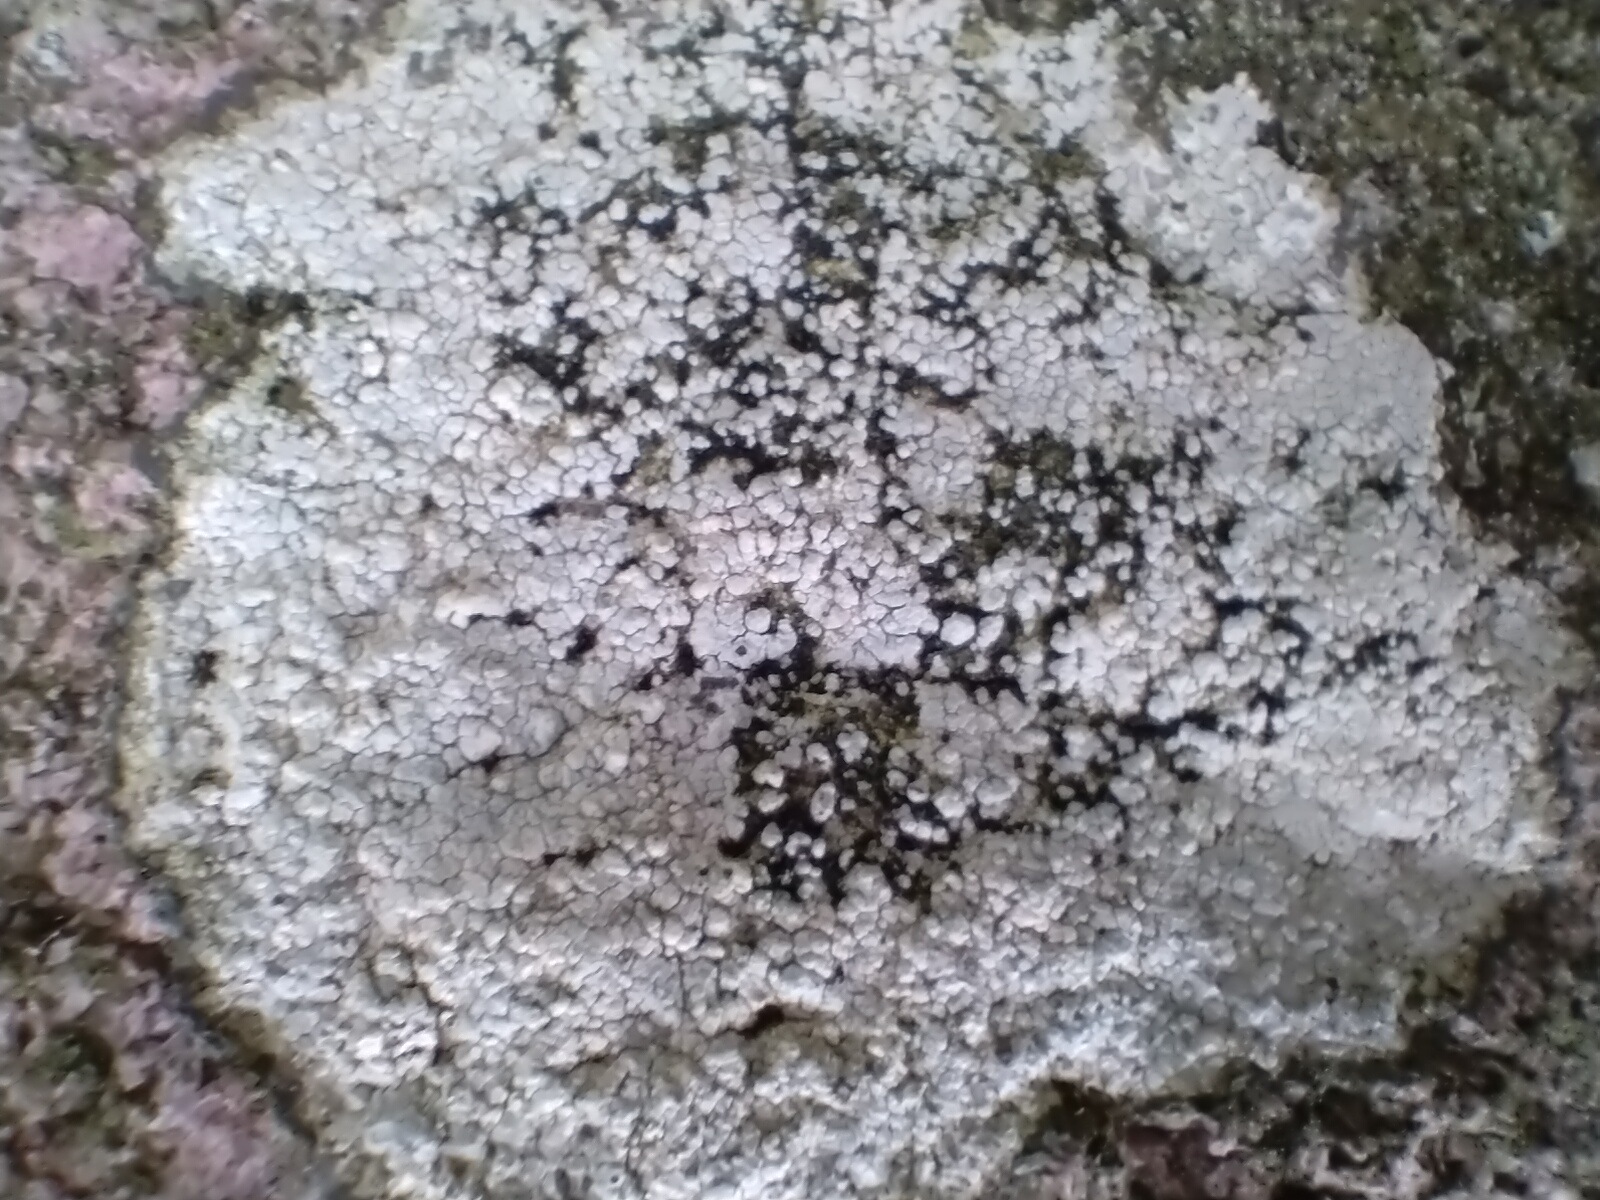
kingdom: Fungi
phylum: Ascomycota
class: Lecanoromycetes
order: Lecanorales
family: Parmeliaceae
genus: Lichen
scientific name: Lichen
